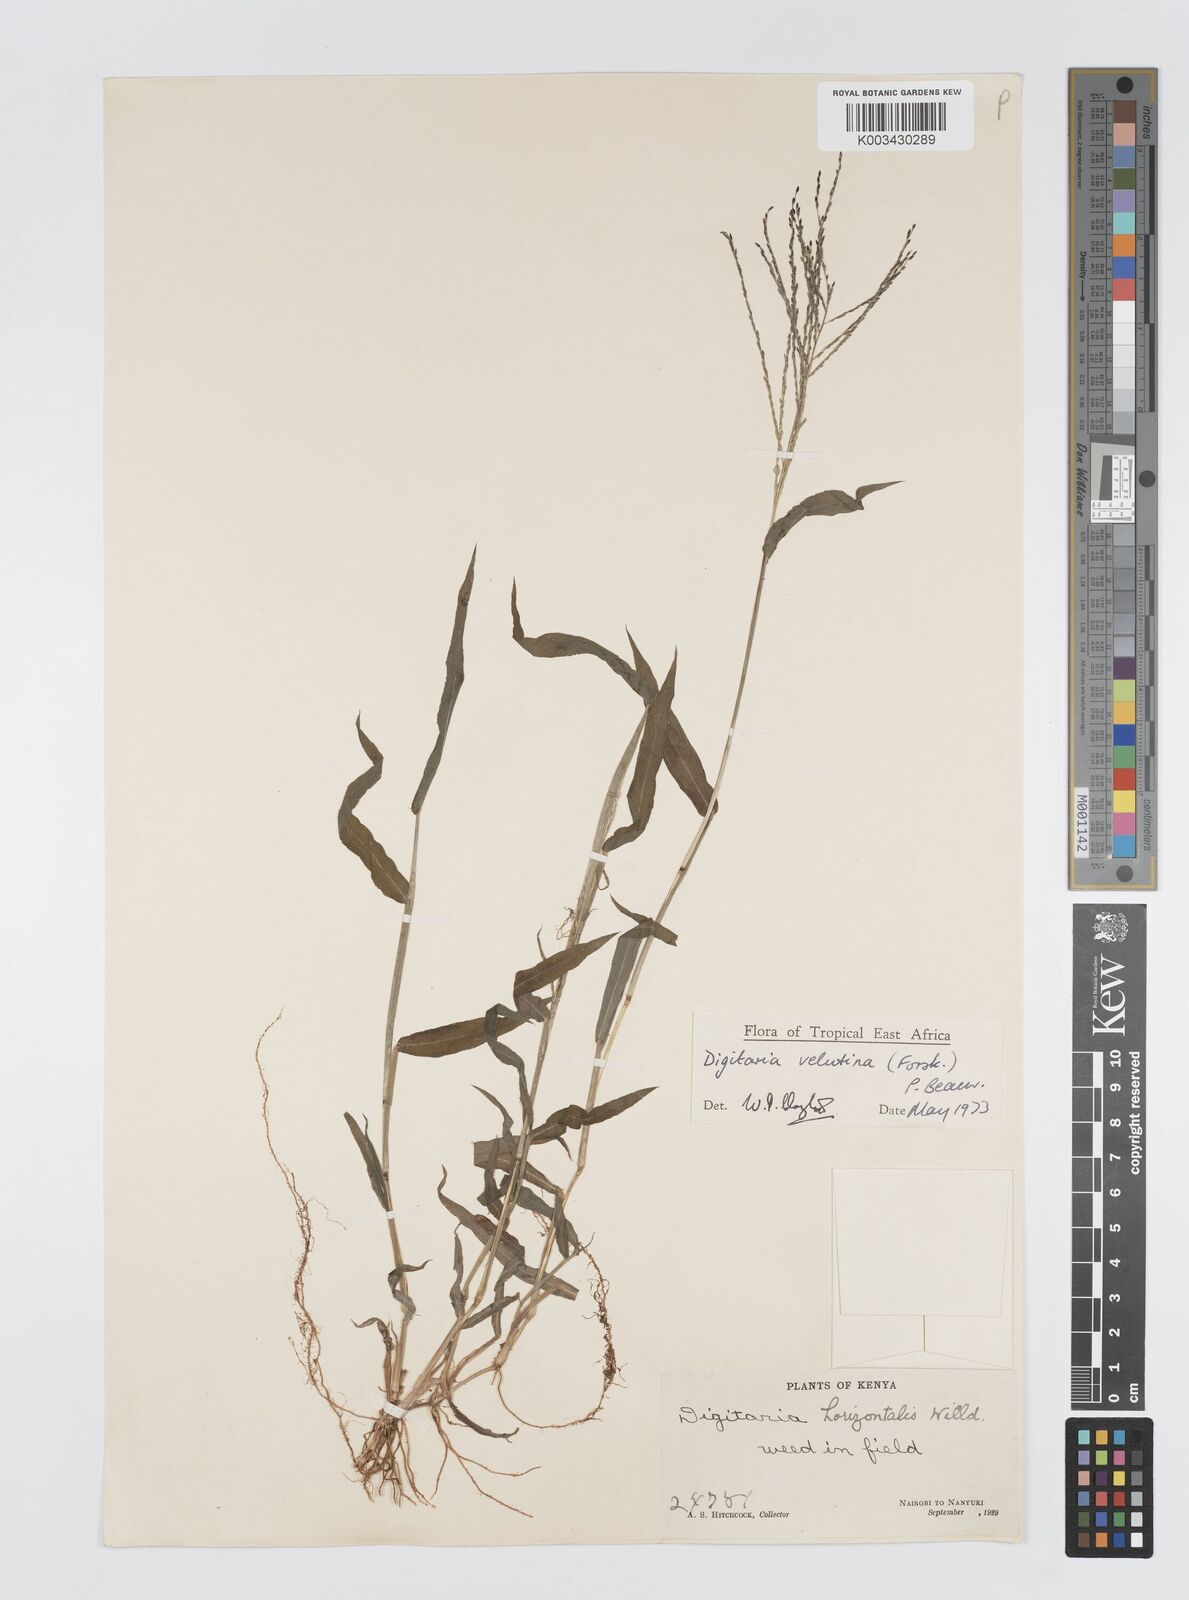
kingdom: Plantae
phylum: Tracheophyta
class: Liliopsida
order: Poales
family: Poaceae
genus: Digitaria
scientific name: Digitaria velutina
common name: Long-plume finger grass
